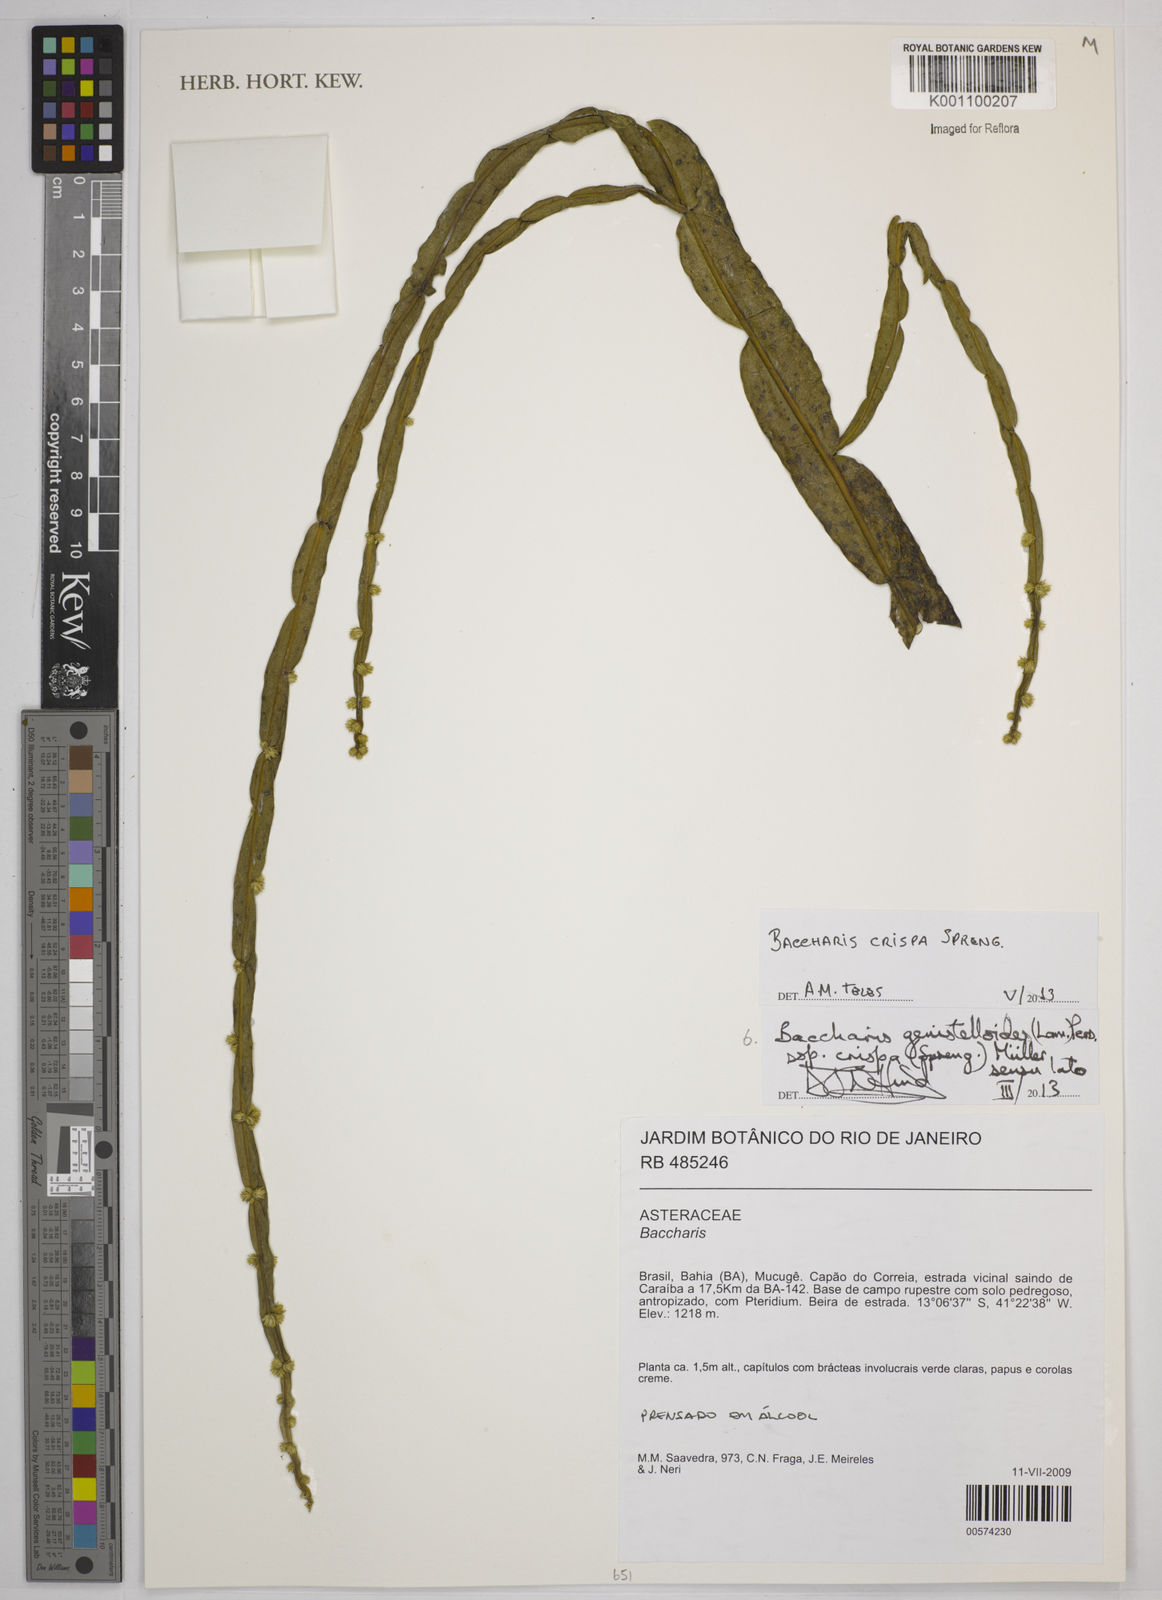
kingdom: Plantae
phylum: Tracheophyta
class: Magnoliopsida
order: Asterales
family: Asteraceae
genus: Baccharis
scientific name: Baccharis crispa
